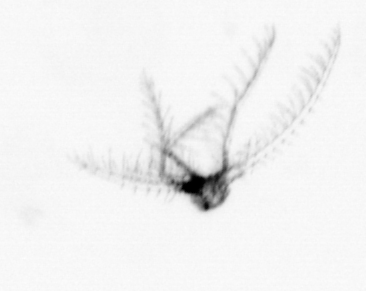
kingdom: Animalia
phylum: Arthropoda
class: Maxillopoda
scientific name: Maxillopoda
